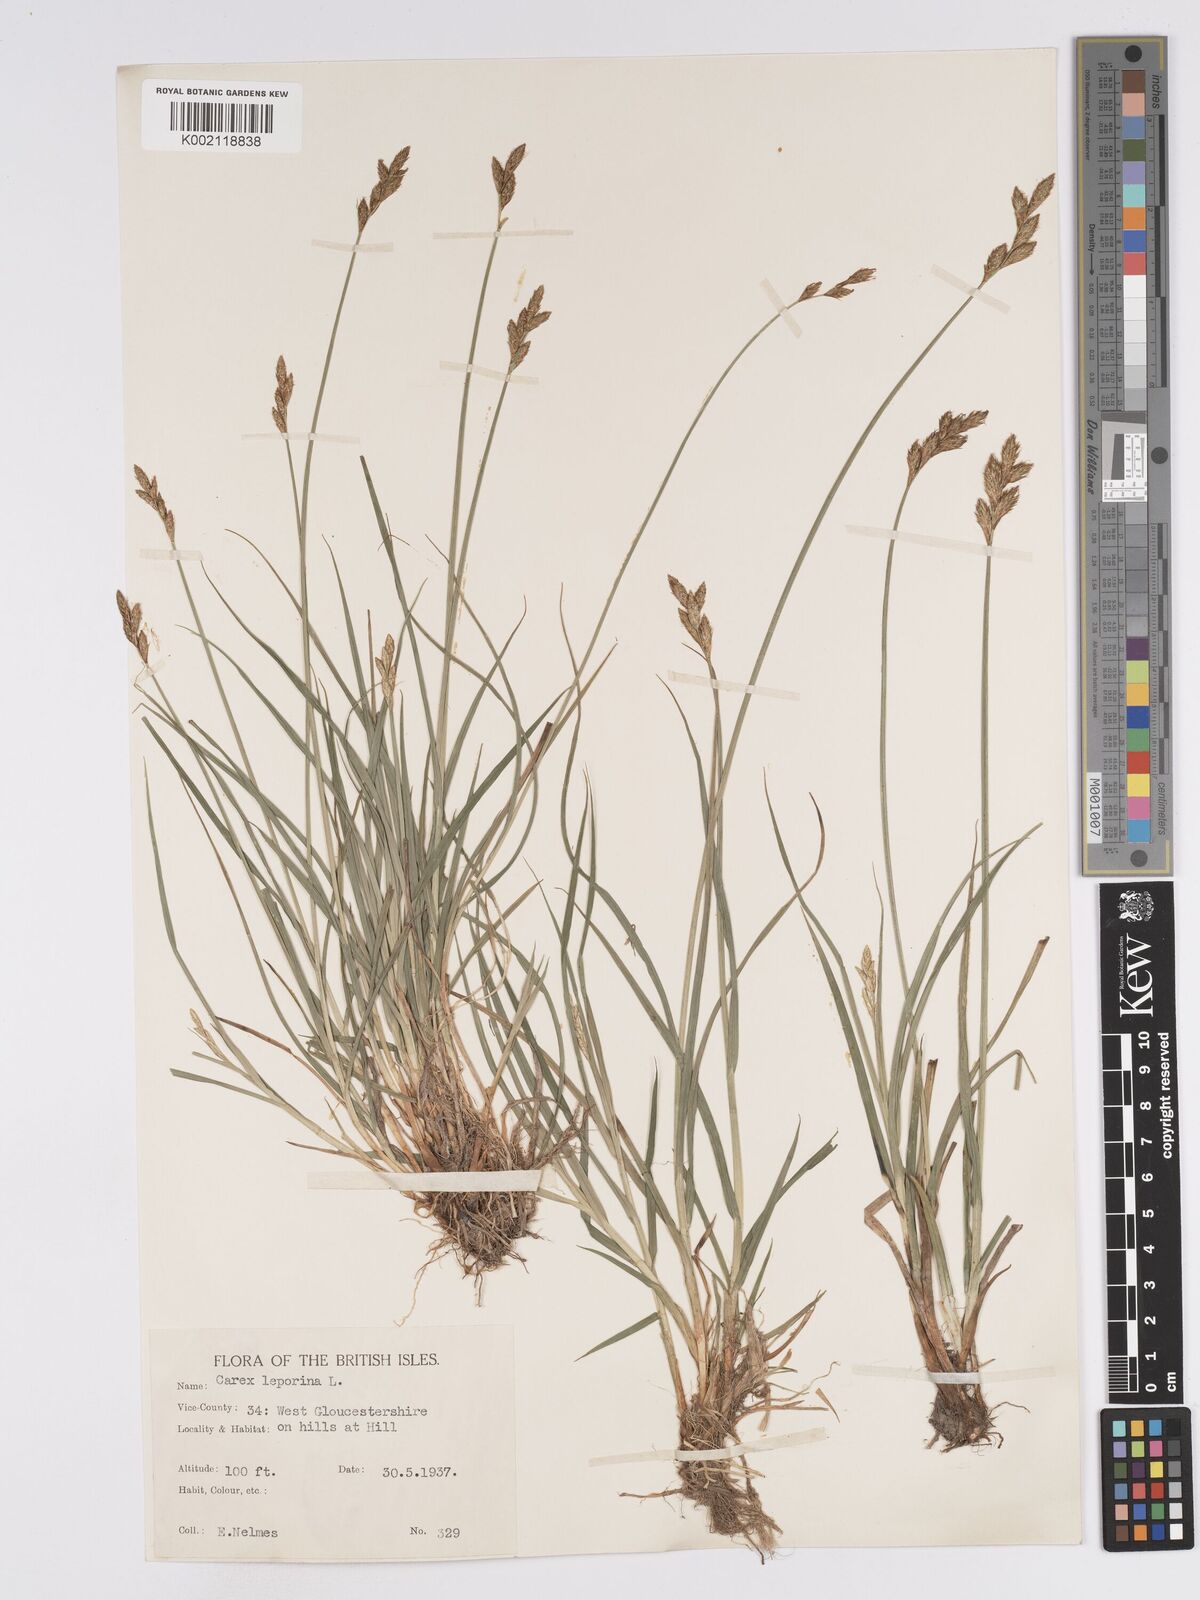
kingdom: Plantae
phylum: Tracheophyta
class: Liliopsida
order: Poales
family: Cyperaceae
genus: Carex
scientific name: Carex leporina
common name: Oval sedge
